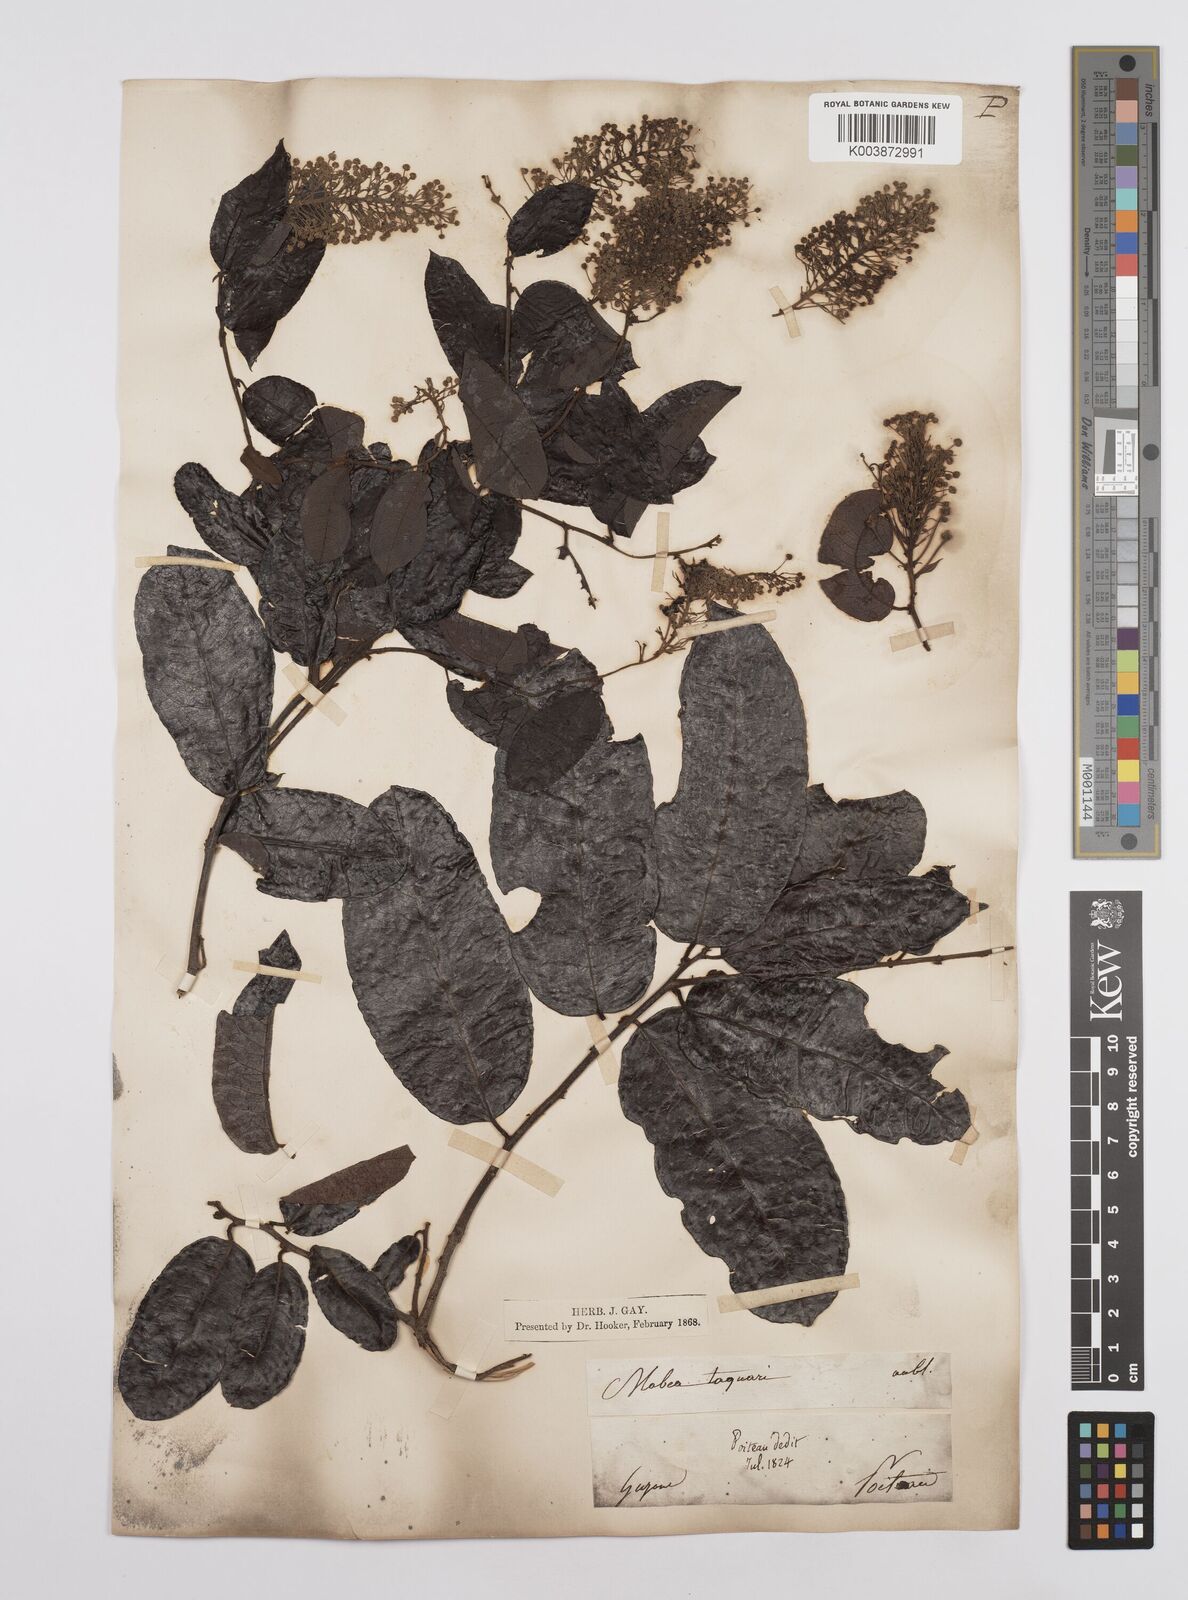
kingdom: Plantae
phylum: Tracheophyta
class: Magnoliopsida
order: Malpighiales
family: Euphorbiaceae
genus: Mabea
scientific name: Mabea taquari
